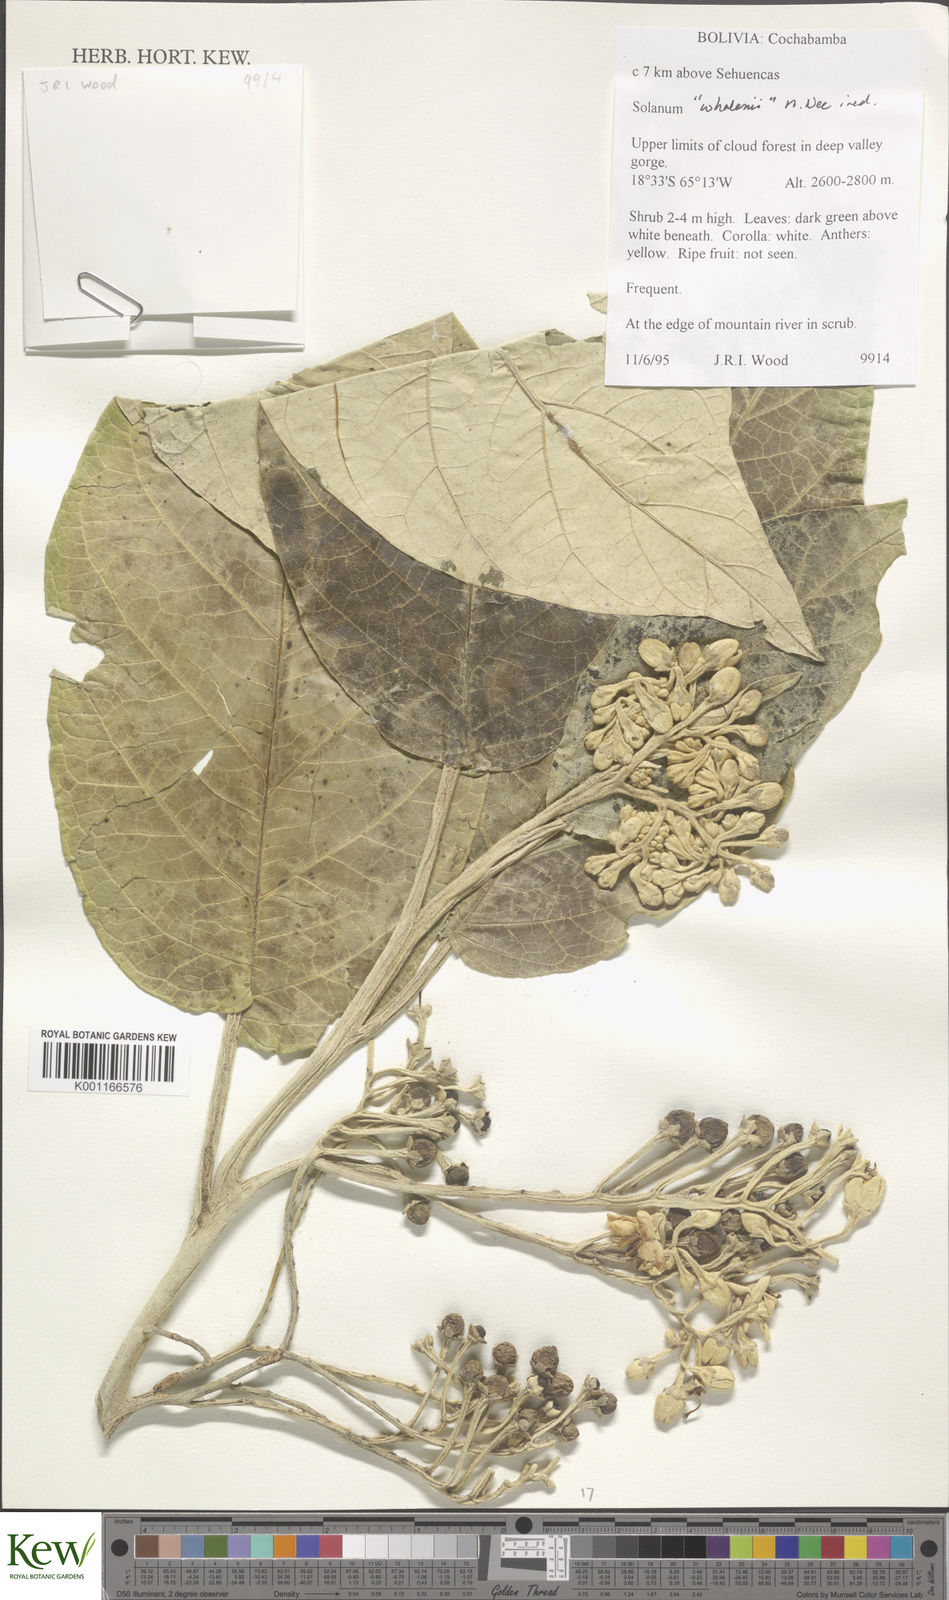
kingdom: Plantae
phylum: Tracheophyta
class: Magnoliopsida
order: Solanales
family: Solanaceae
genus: Solanum
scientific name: Solanum whalenii
